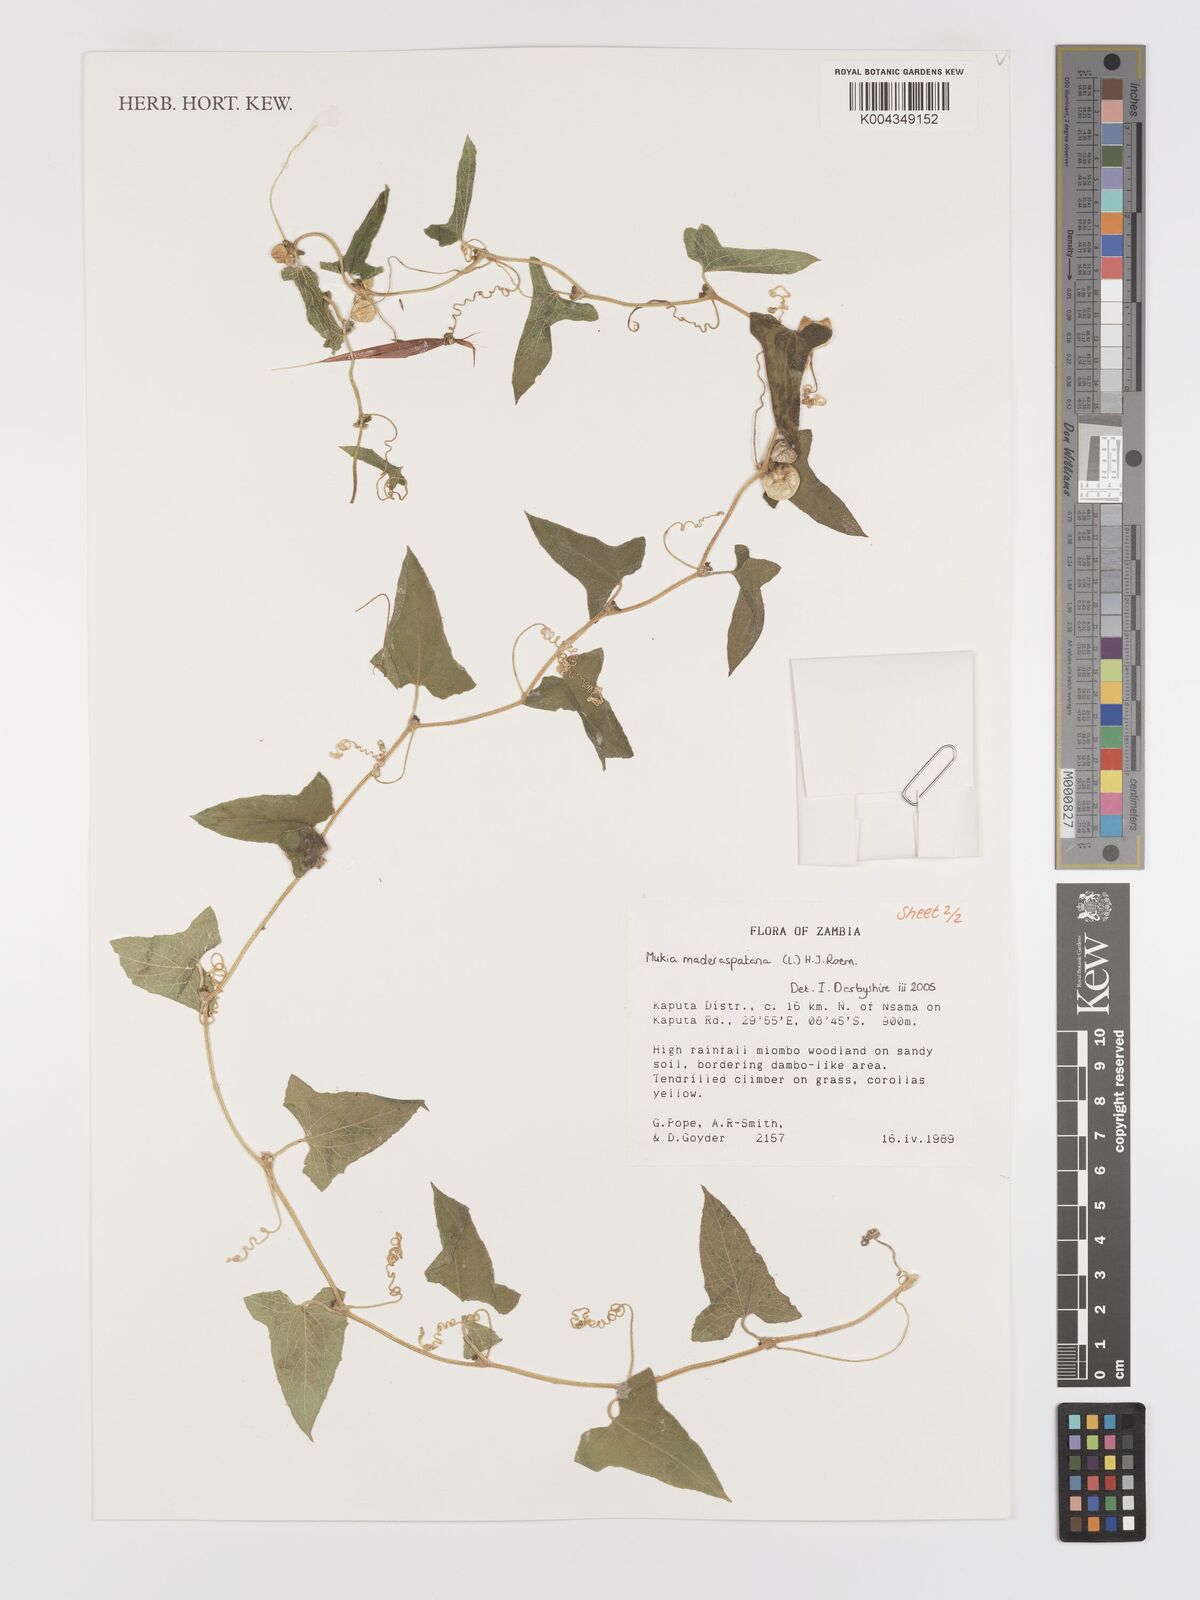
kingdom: Plantae
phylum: Tracheophyta
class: Magnoliopsida
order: Cucurbitales
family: Cucurbitaceae
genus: Cucumis
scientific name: Cucumis maderaspatanus
